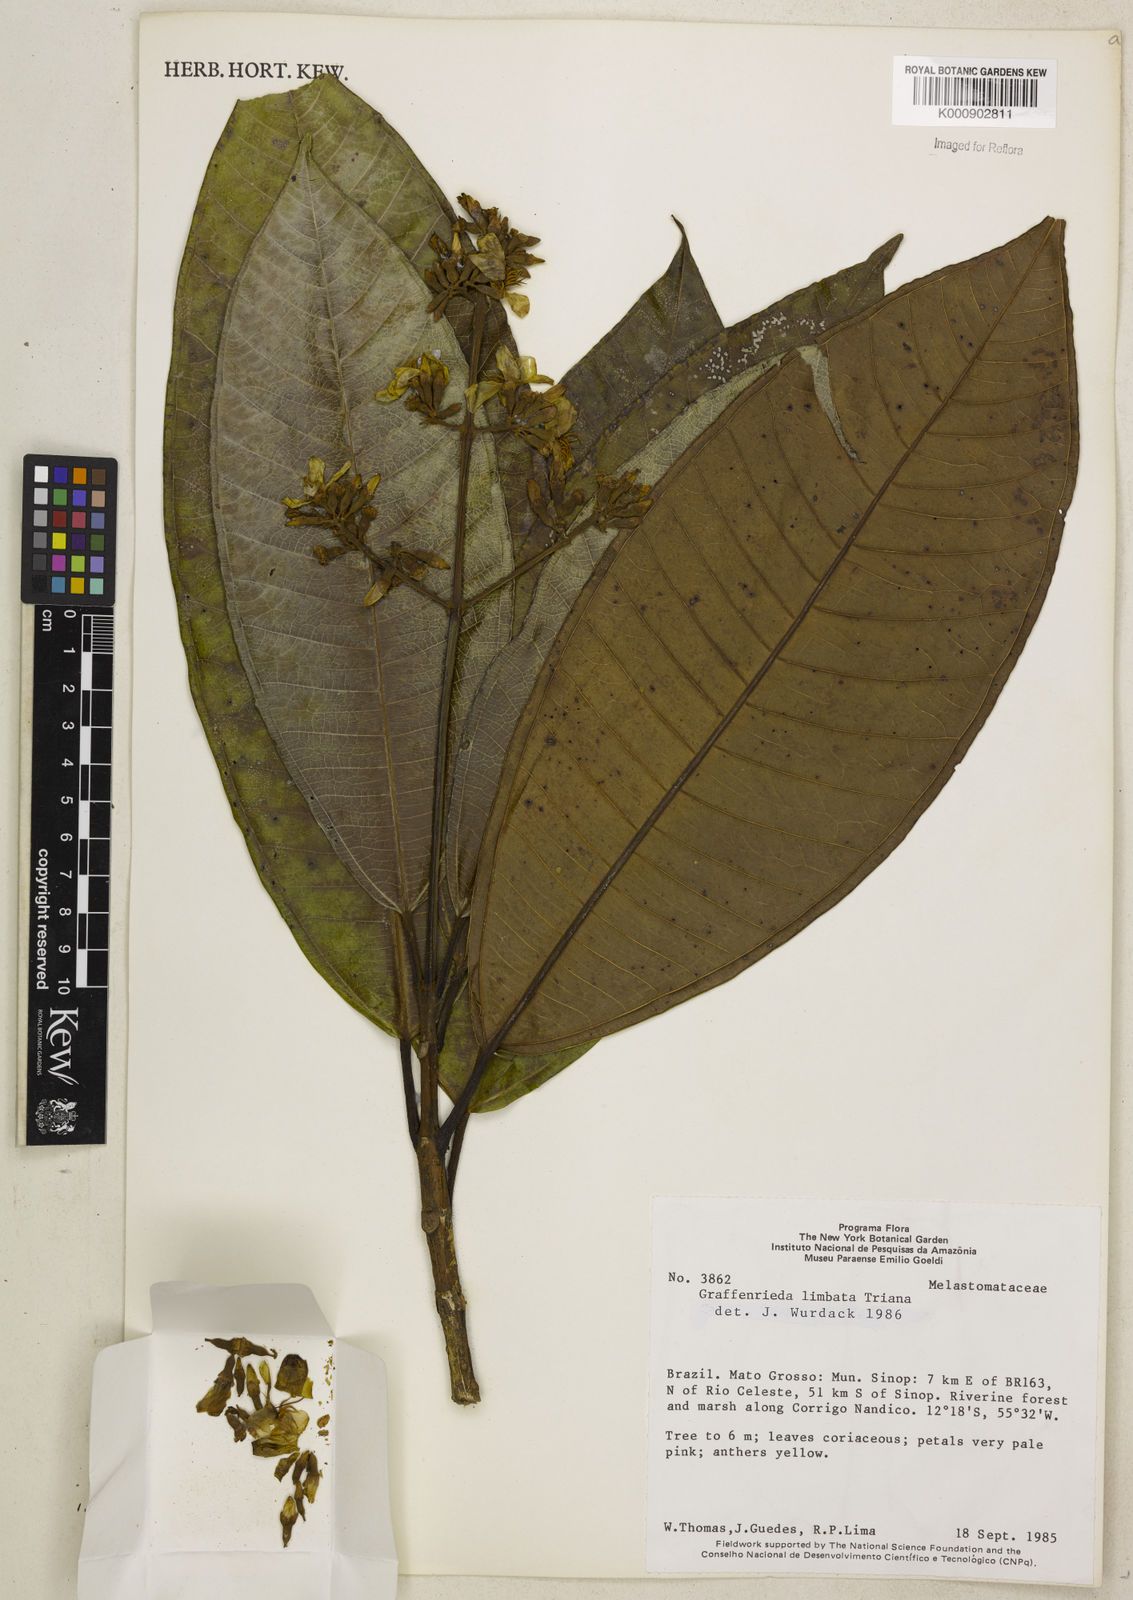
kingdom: Plantae
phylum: Tracheophyta
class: Magnoliopsida
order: Myrtales
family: Melastomataceae
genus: Graffenrieda
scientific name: Graffenrieda limbata
